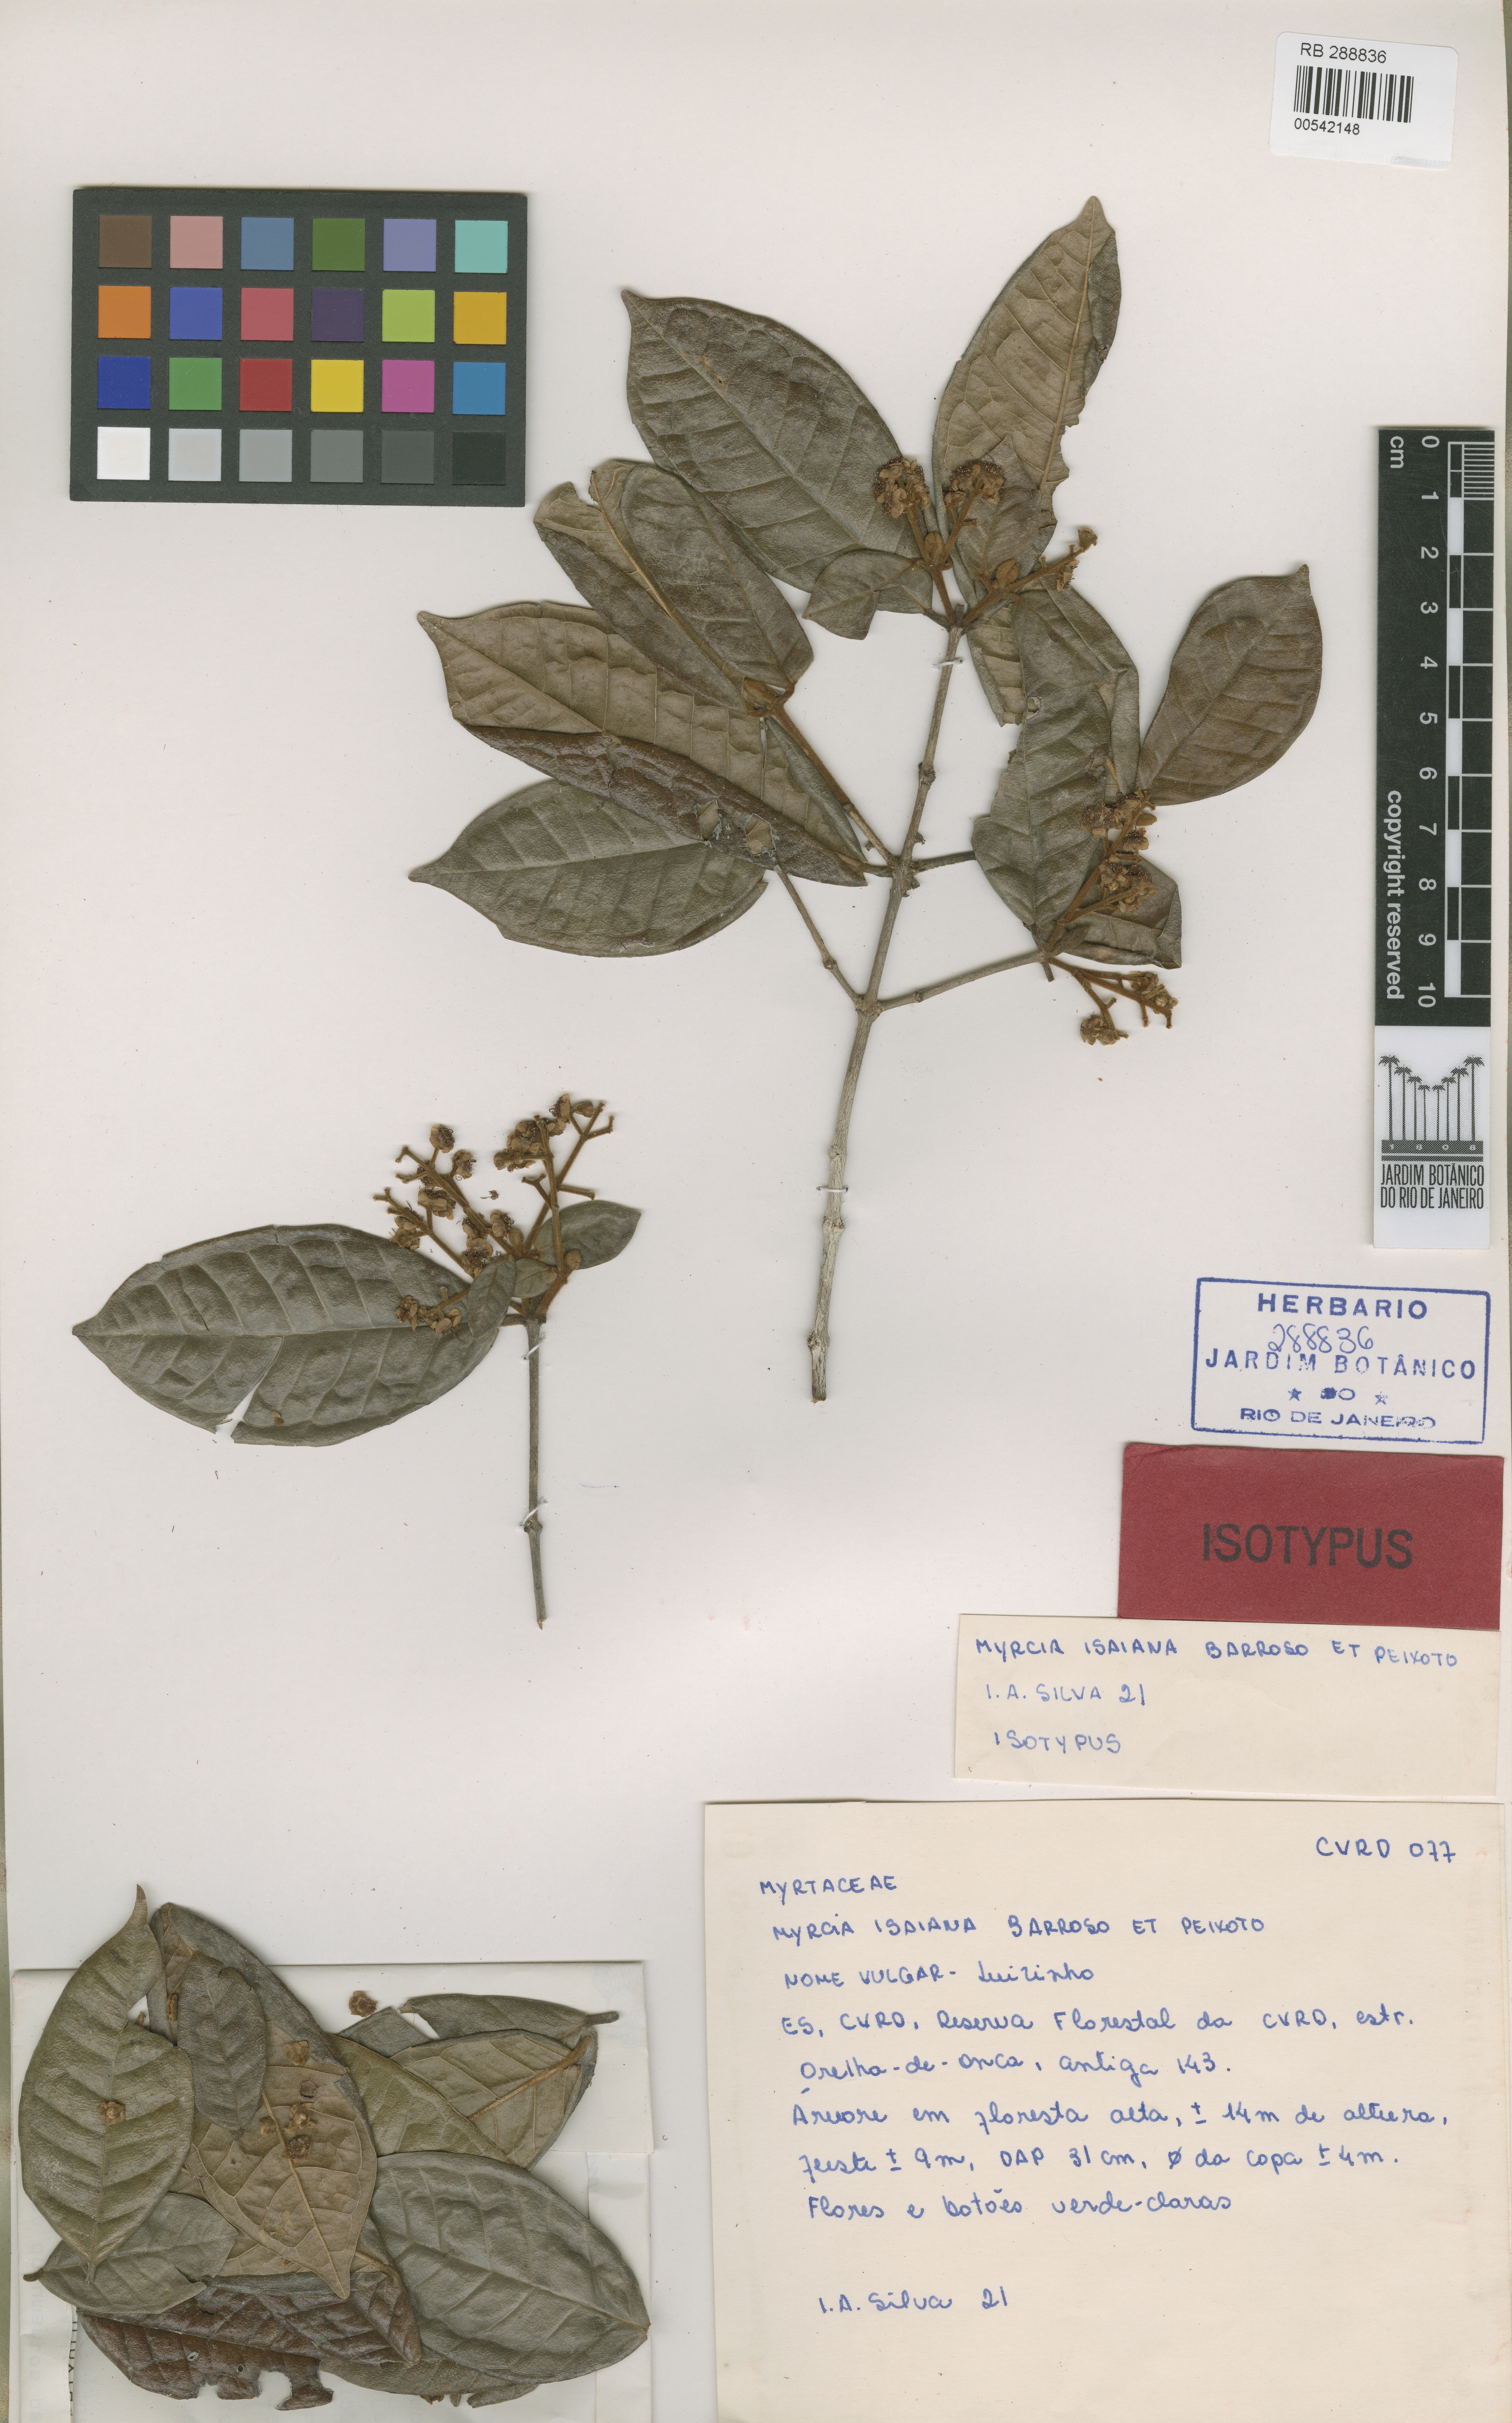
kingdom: Plantae
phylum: Tracheophyta
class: Magnoliopsida
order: Myrtales
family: Myrtaceae
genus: Myrcia
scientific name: Myrcia isaiana
